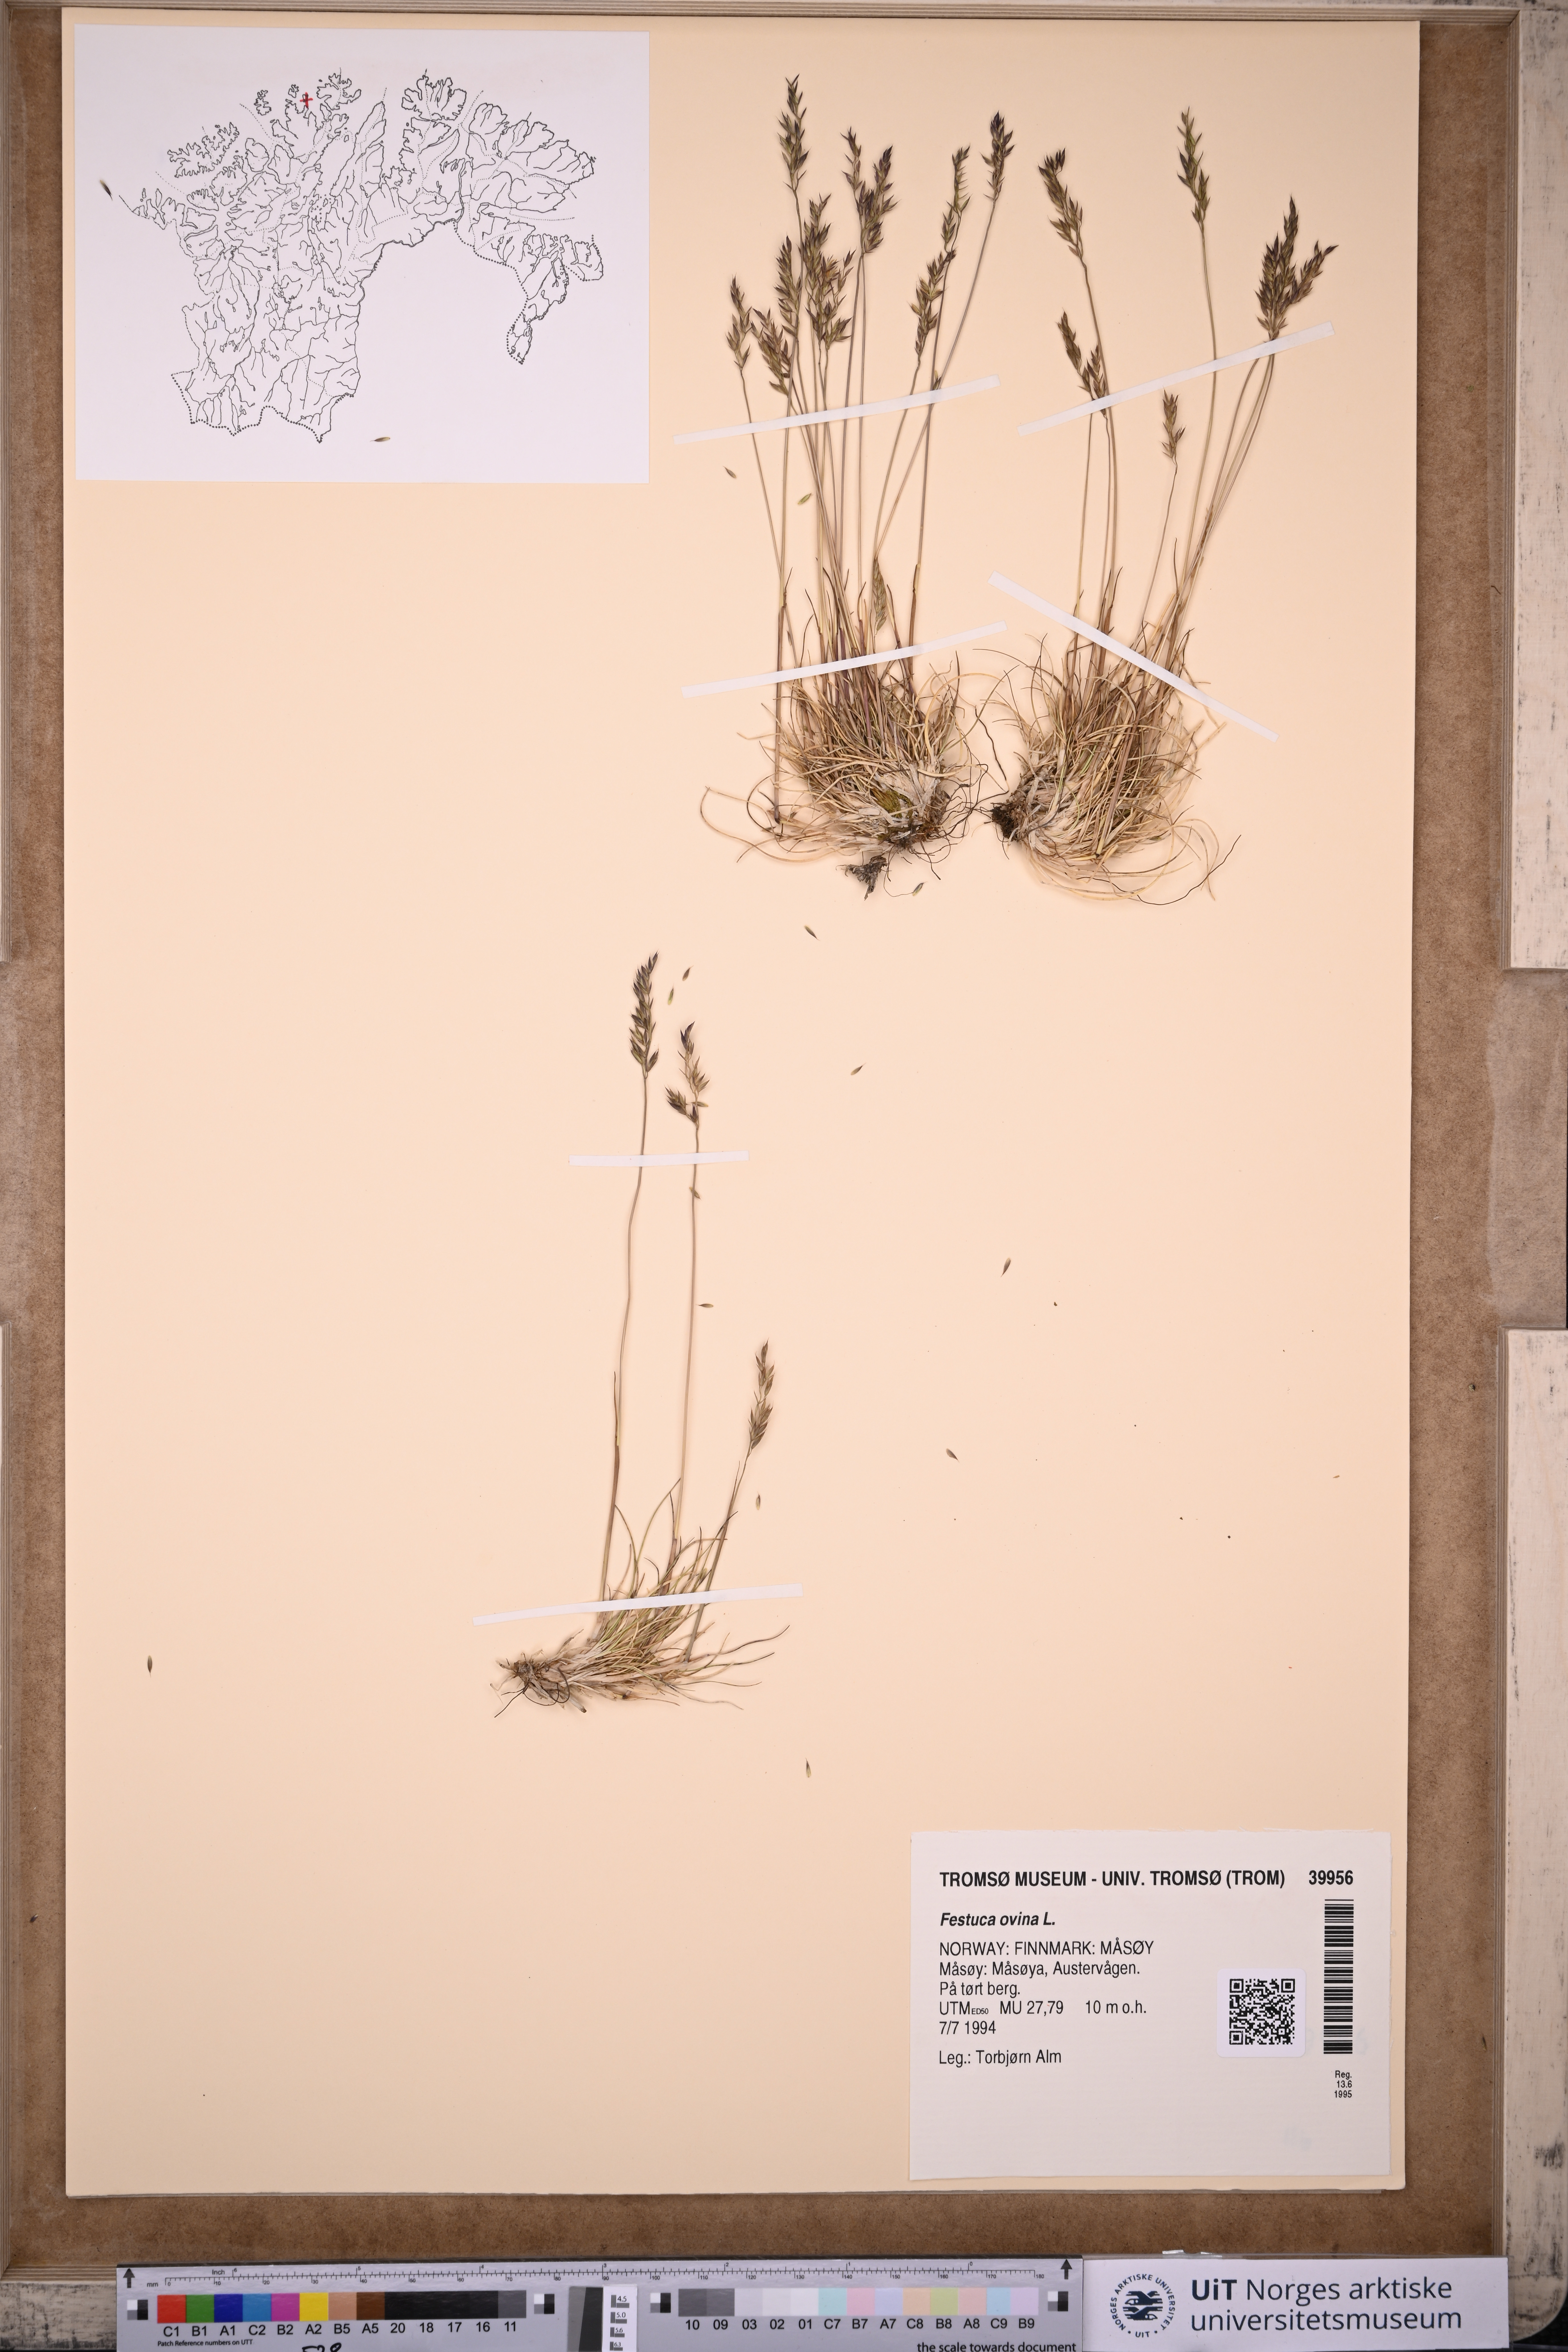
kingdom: Plantae
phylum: Tracheophyta
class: Liliopsida
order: Poales
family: Poaceae
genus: Festuca
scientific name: Festuca ovina
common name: Sheep fescue
